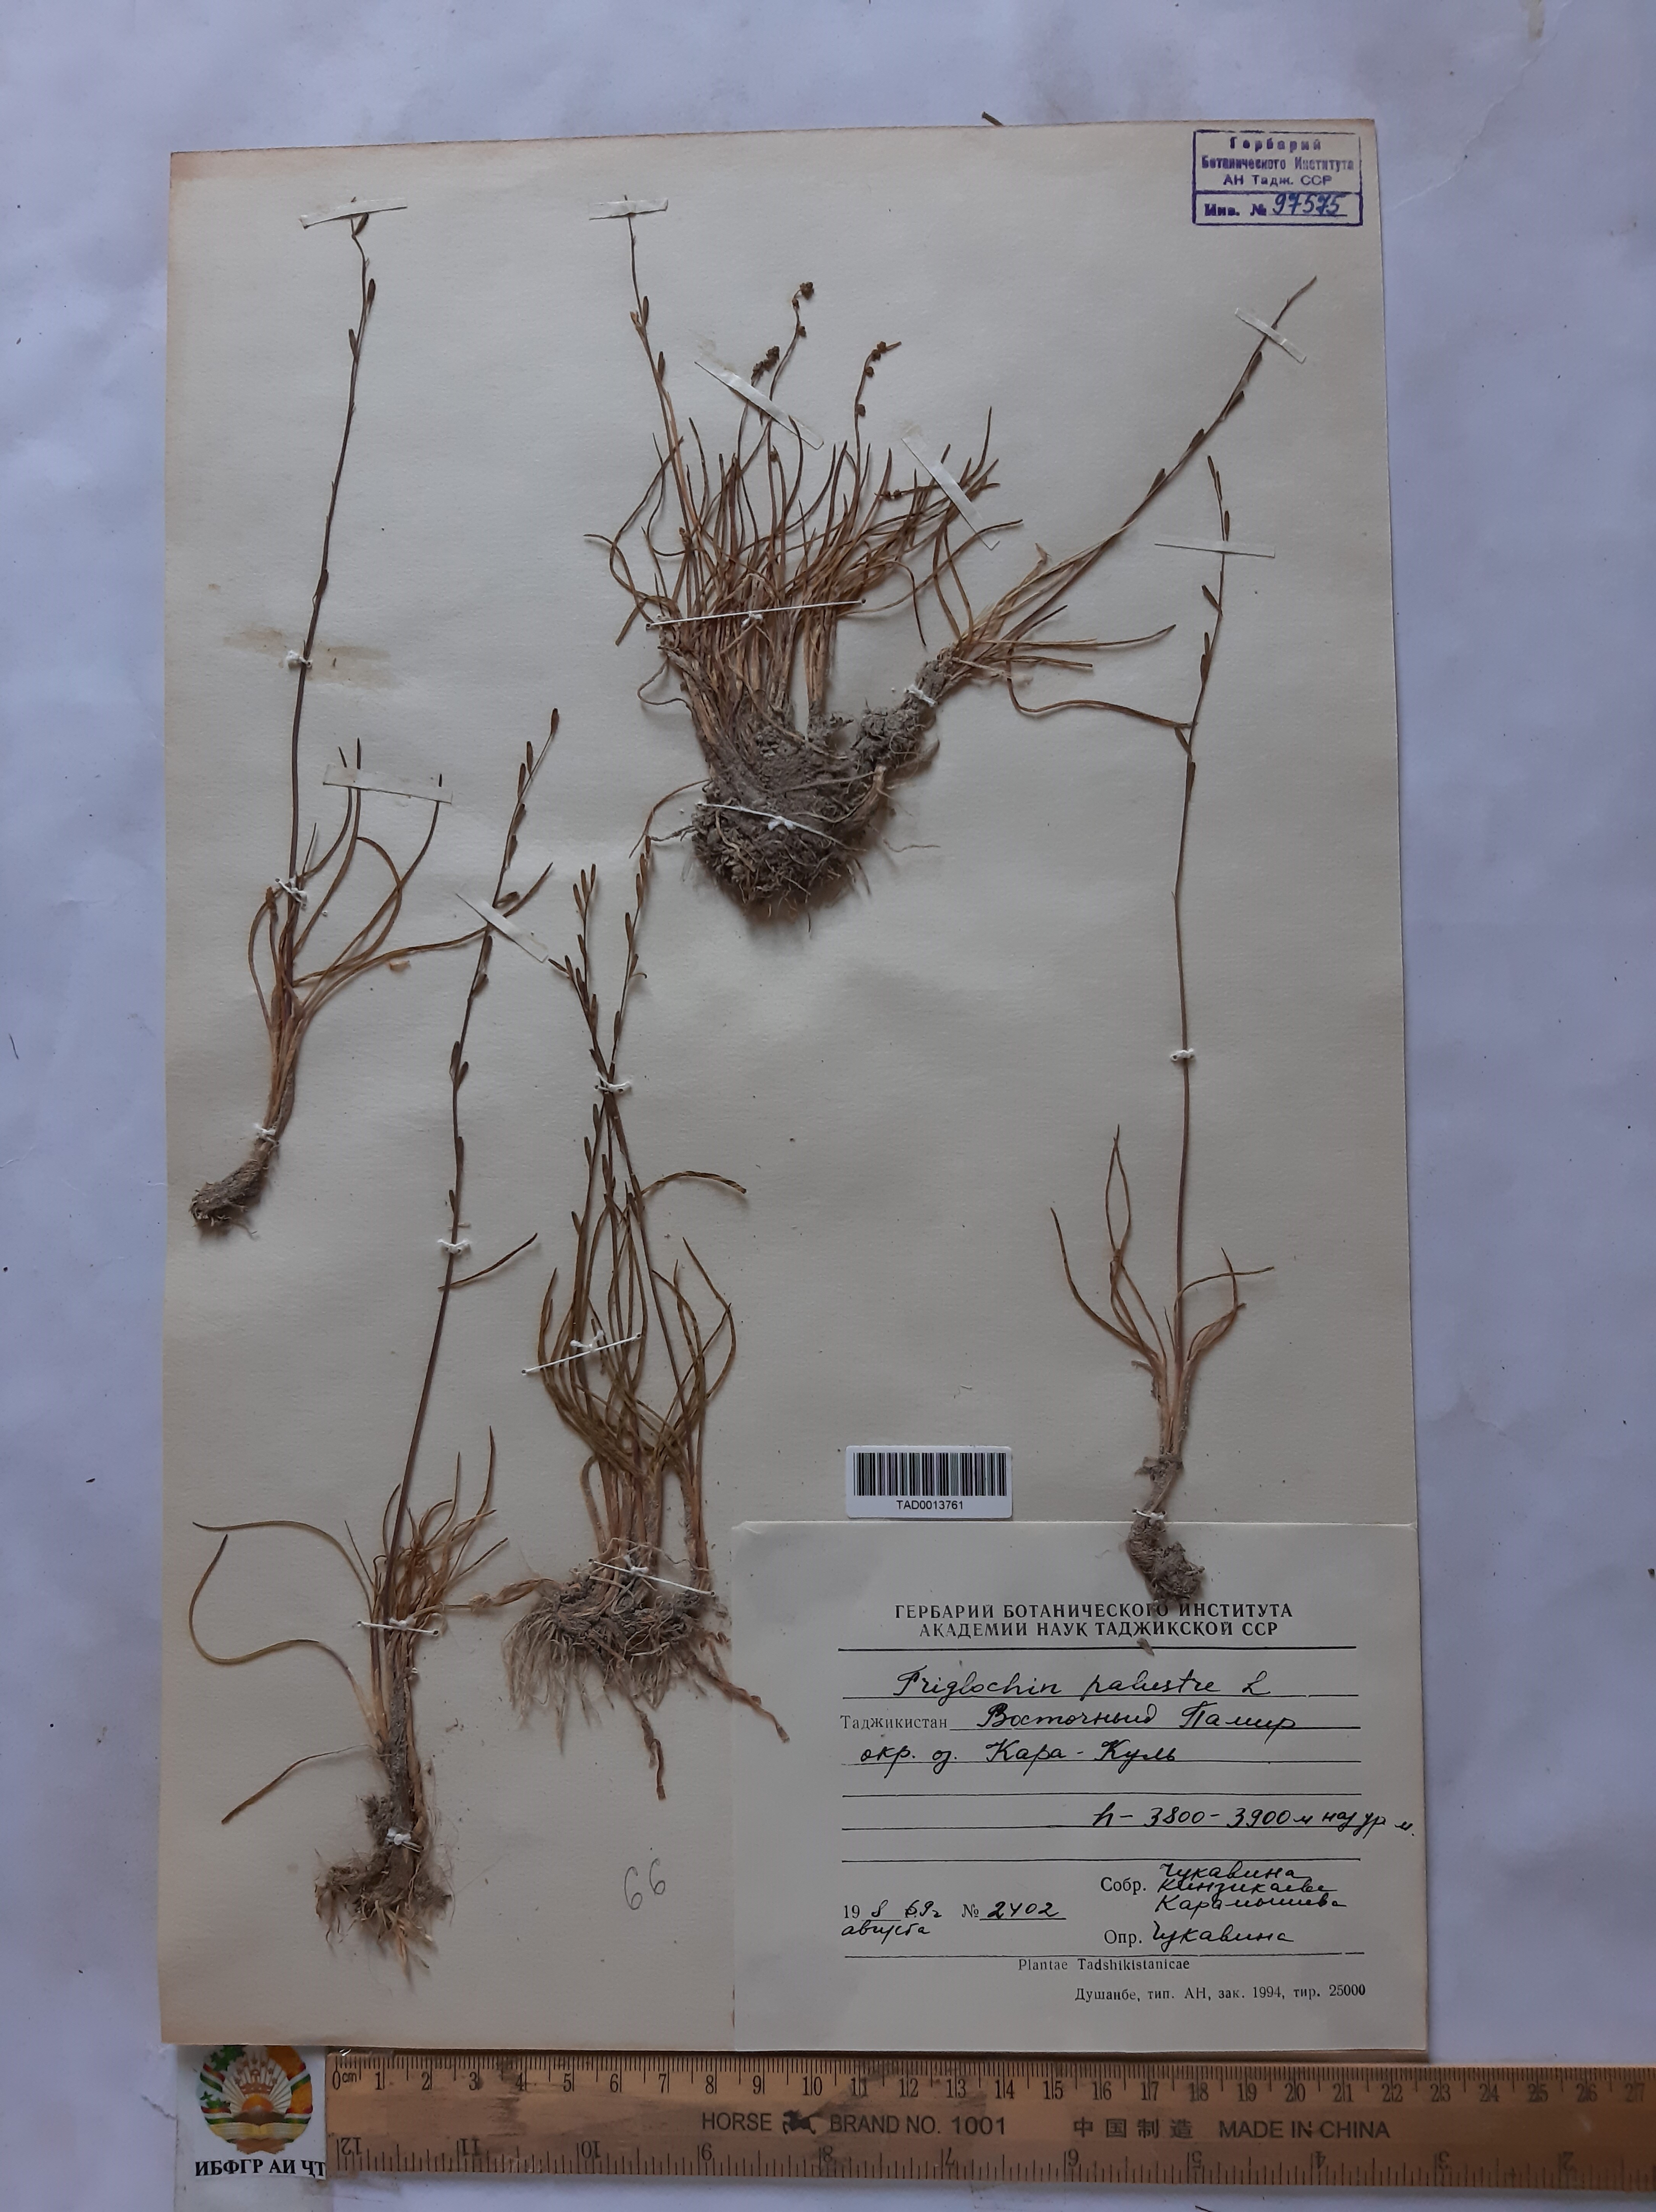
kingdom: Plantae
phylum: Tracheophyta
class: Liliopsida
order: Alismatales
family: Juncaginaceae
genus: Triglochin
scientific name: Triglochin palustris
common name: Marsh arrowgrass
